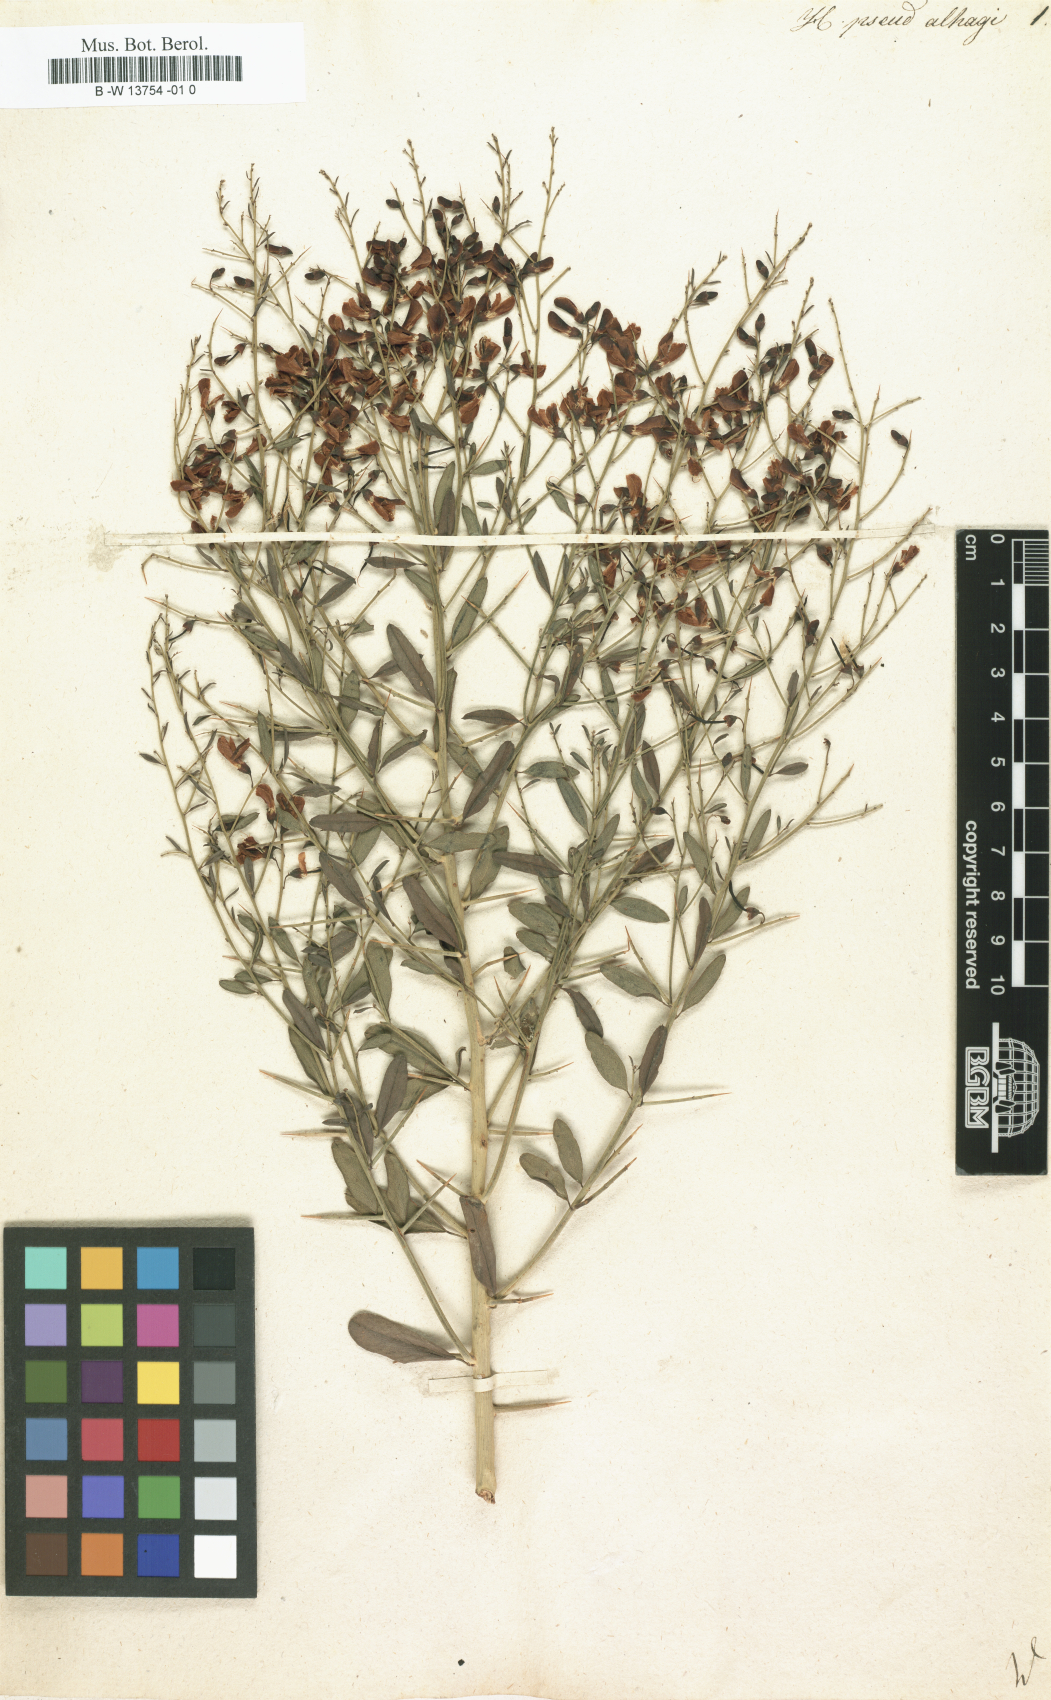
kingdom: Plantae
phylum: Tracheophyta
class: Magnoliopsida
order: Fabales
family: Fabaceae
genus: Alhagi
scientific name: Alhagi pseudalhagi
